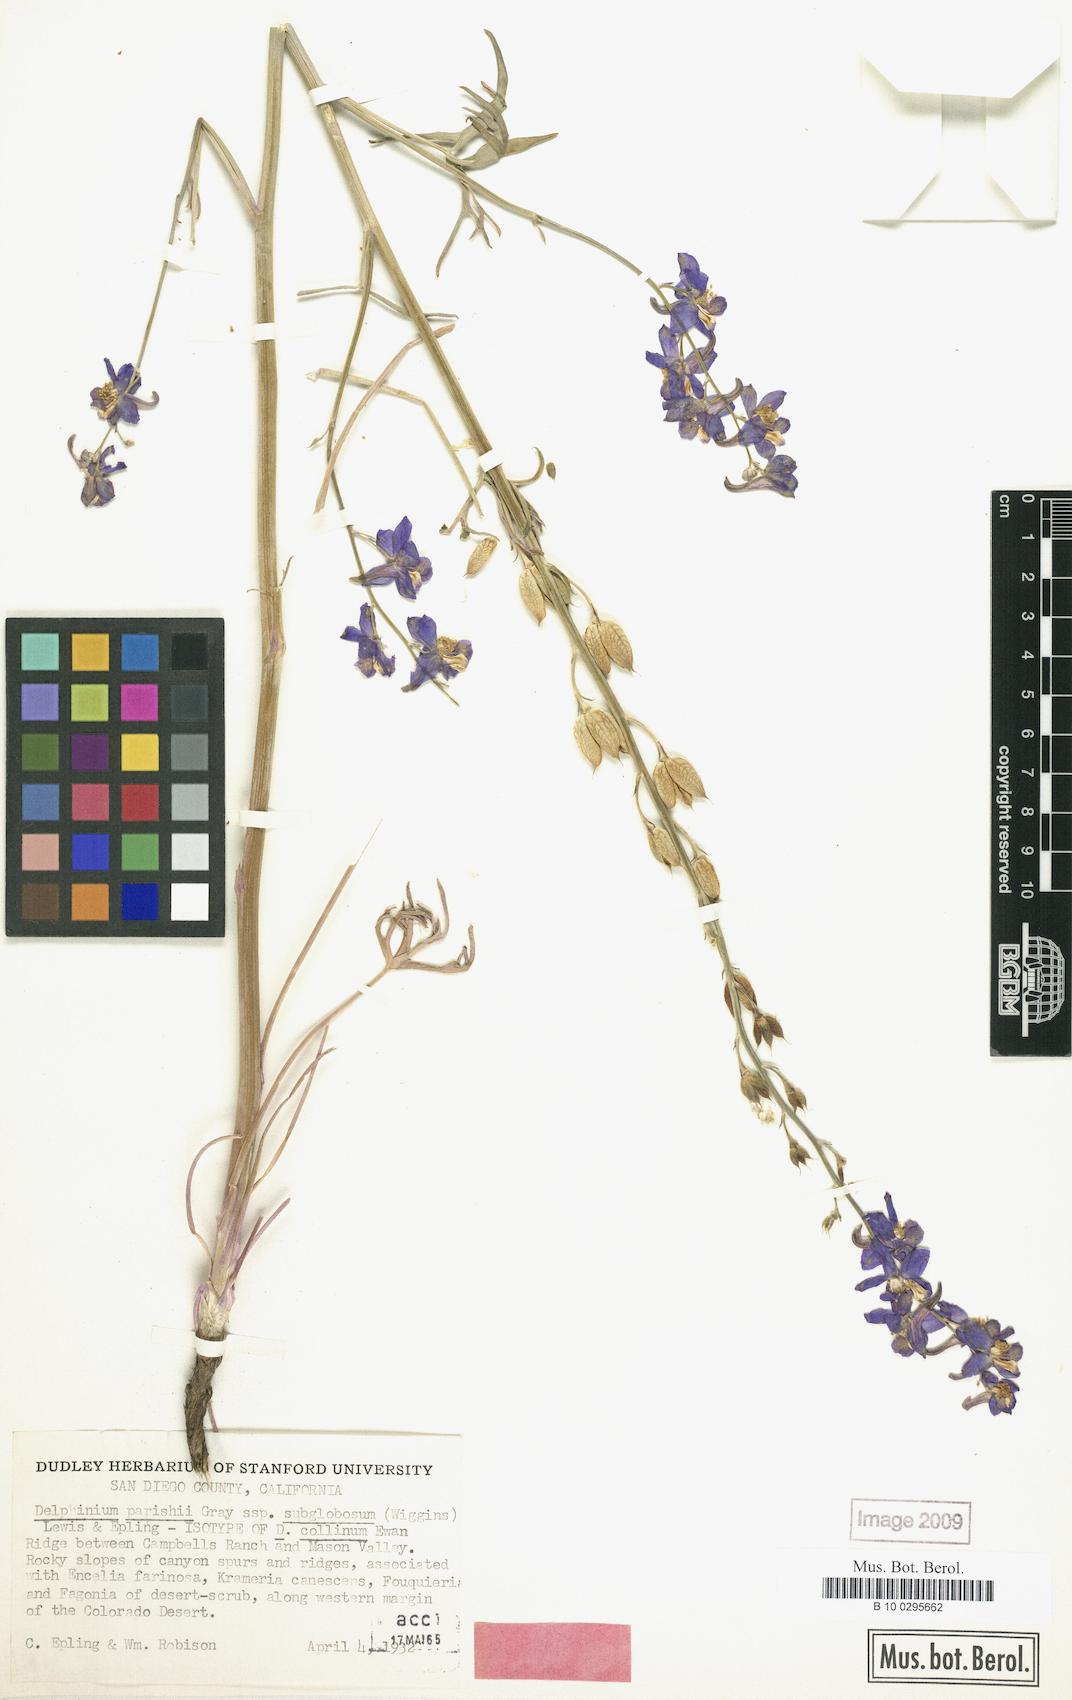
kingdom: Plantae
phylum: Tracheophyta
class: Magnoliopsida
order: Ranunculales
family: Ranunculaceae
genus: Delphinium
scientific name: Delphinium parishii
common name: Apache larkspur
